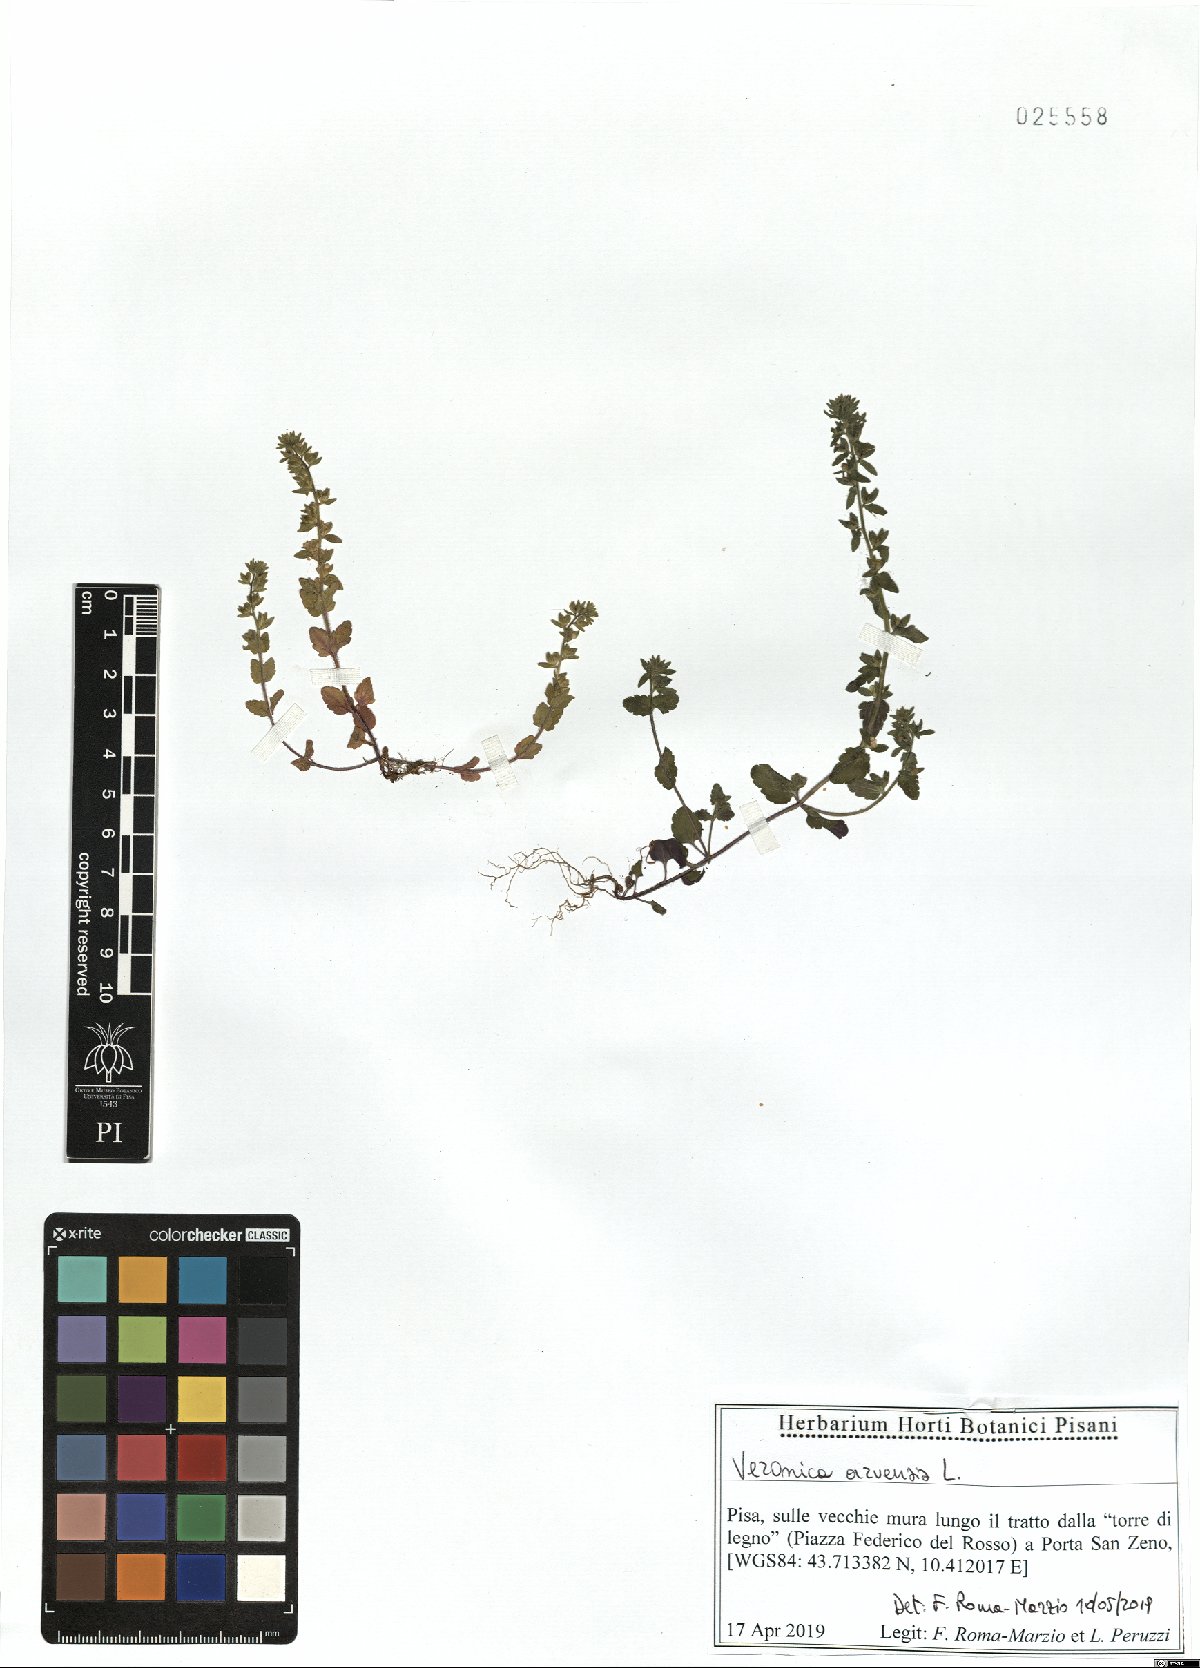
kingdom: Plantae
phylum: Tracheophyta
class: Magnoliopsida
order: Lamiales
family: Plantaginaceae
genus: Veronica
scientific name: Veronica arvensis
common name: Corn speedwell
